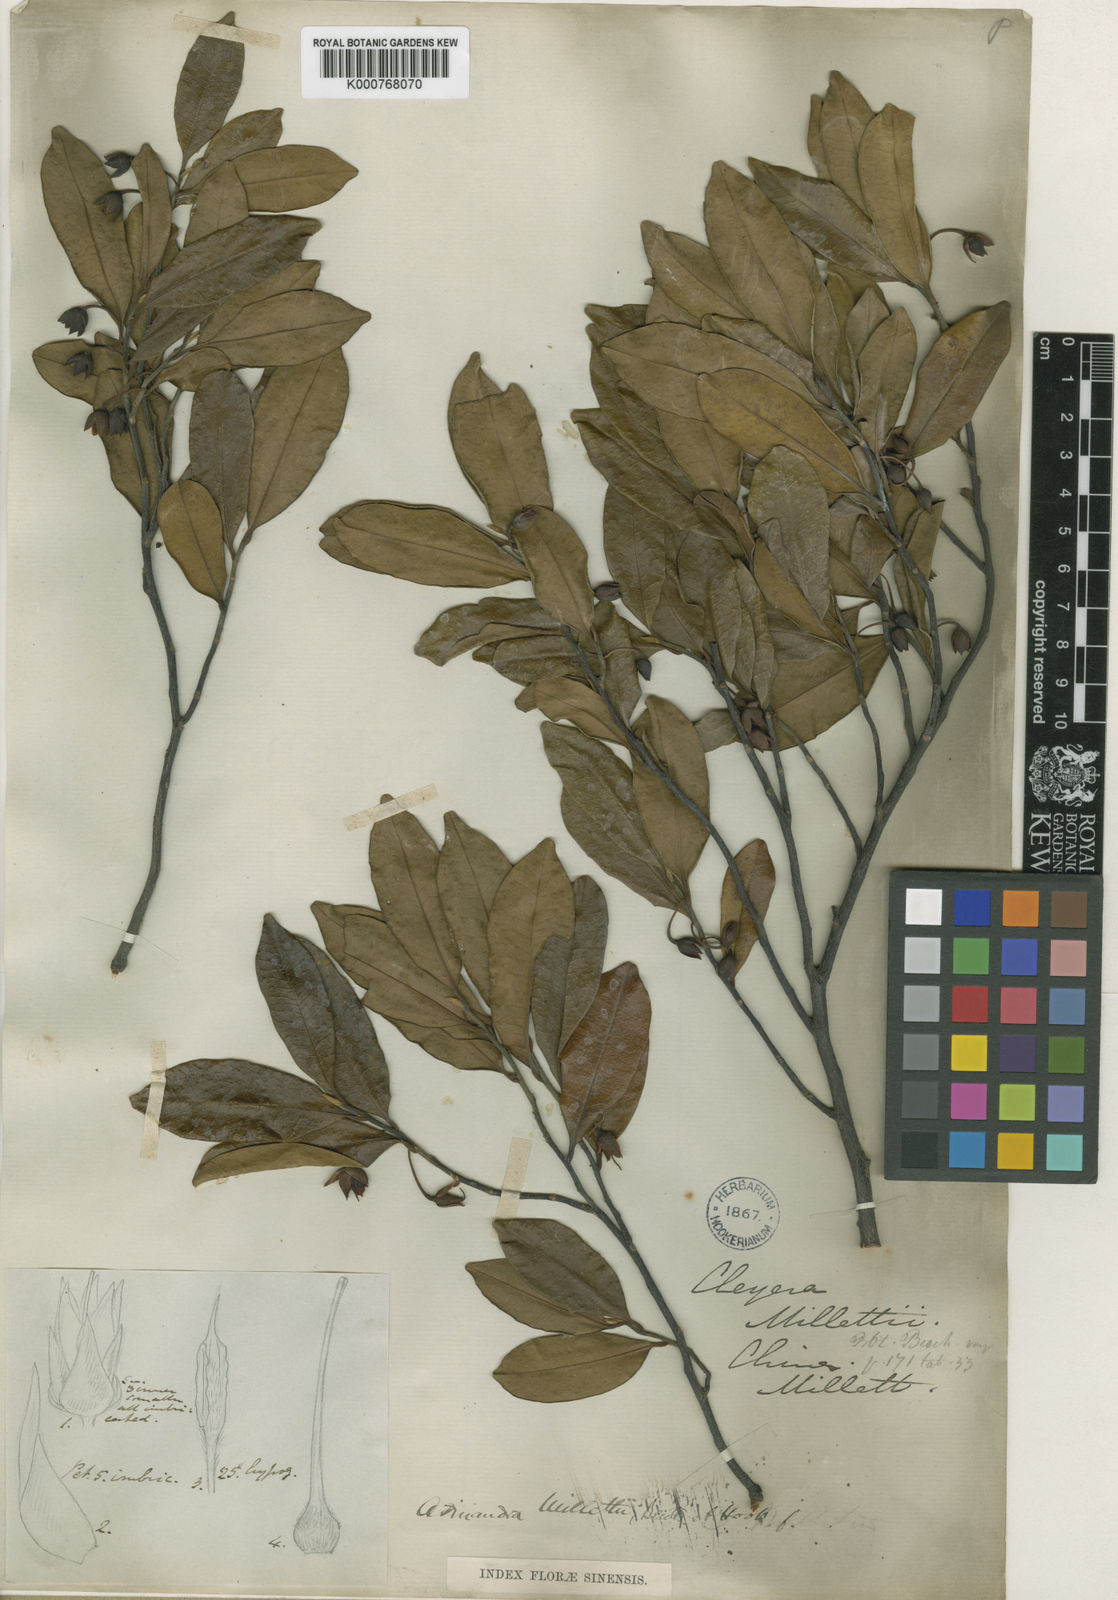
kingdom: Plantae
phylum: Tracheophyta
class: Magnoliopsida
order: Ericales
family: Pentaphylacaceae
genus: Adinandra
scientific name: Adinandra millettii
